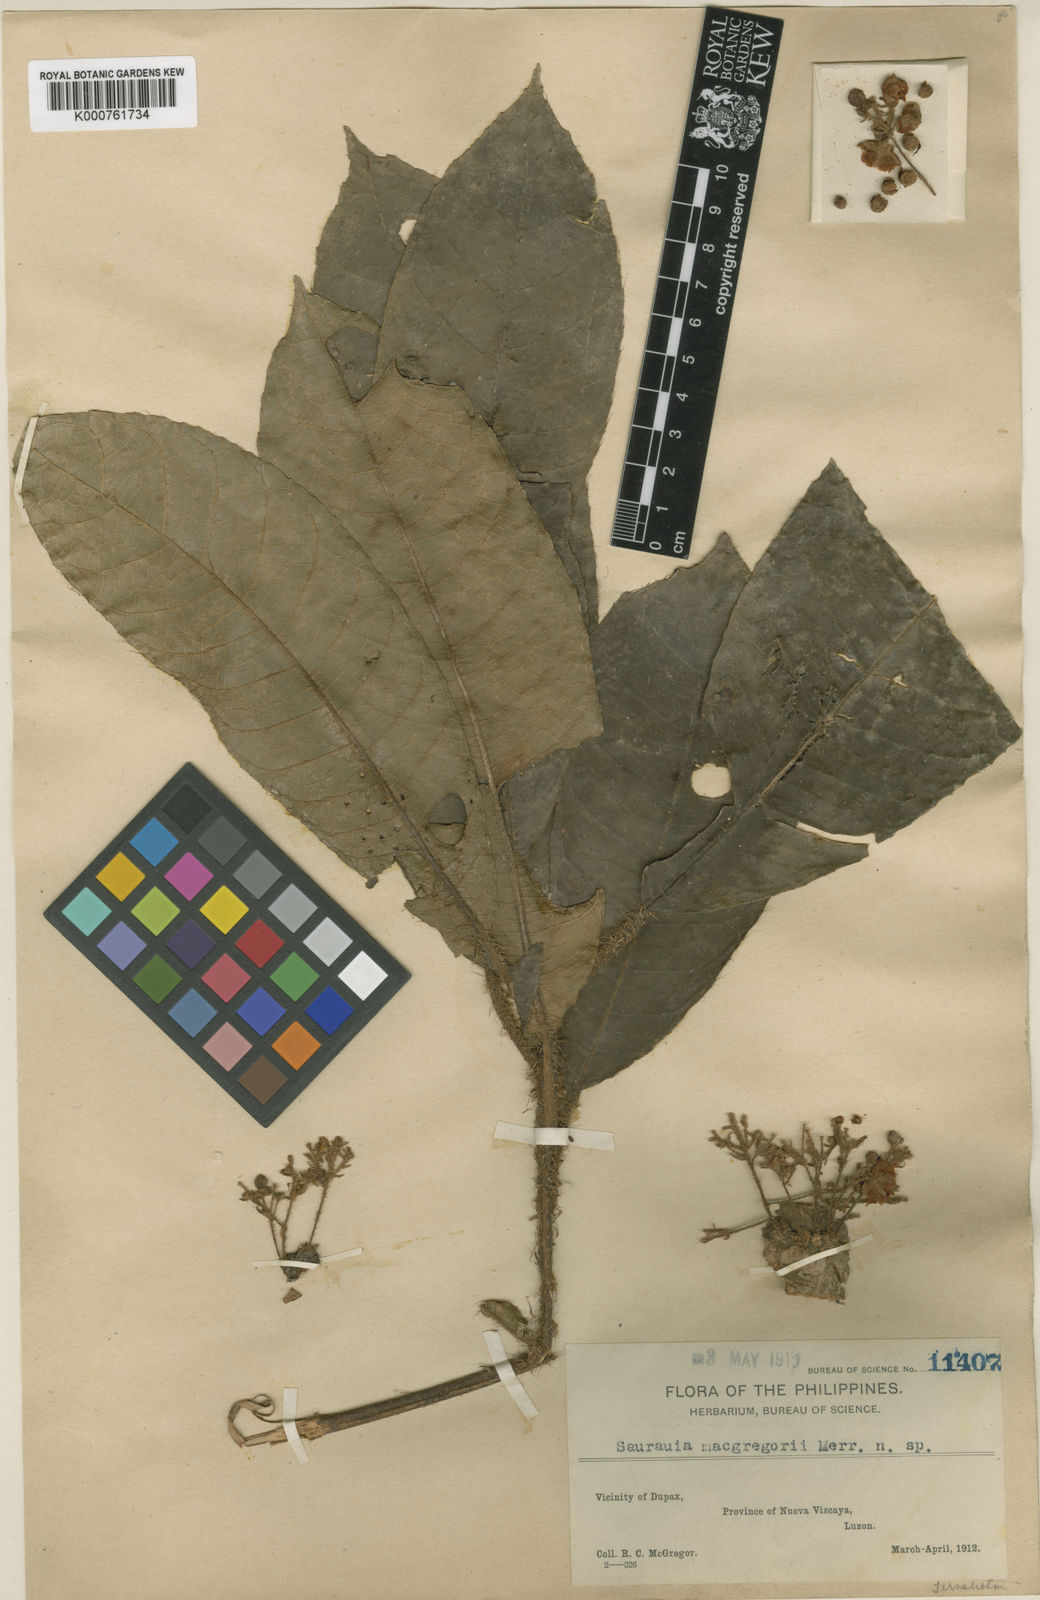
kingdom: Plantae
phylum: Tracheophyta
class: Magnoliopsida
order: Ericales
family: Actinidiaceae
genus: Saurauia
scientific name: Saurauia macgregorii
